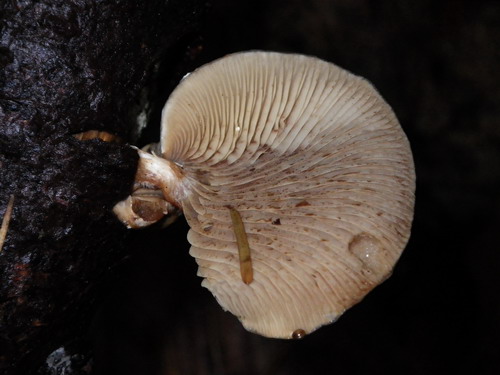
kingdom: Fungi
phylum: Basidiomycota
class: Agaricomycetes
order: Agaricales
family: Strophariaceae
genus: Pholiota
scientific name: Pholiota lenta
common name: løv-skælhat
